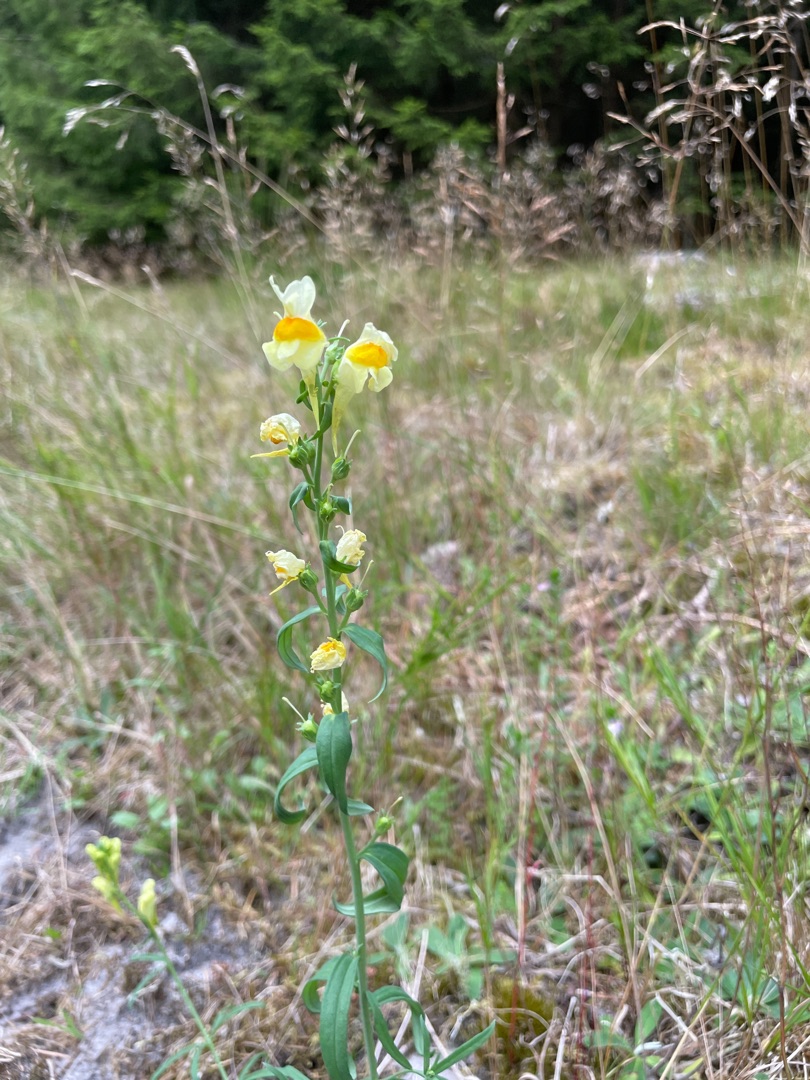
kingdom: Plantae
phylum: Tracheophyta
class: Magnoliopsida
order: Lamiales
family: Plantaginaceae
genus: Linaria
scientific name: Linaria vulgaris
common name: Almindelig torskemund
